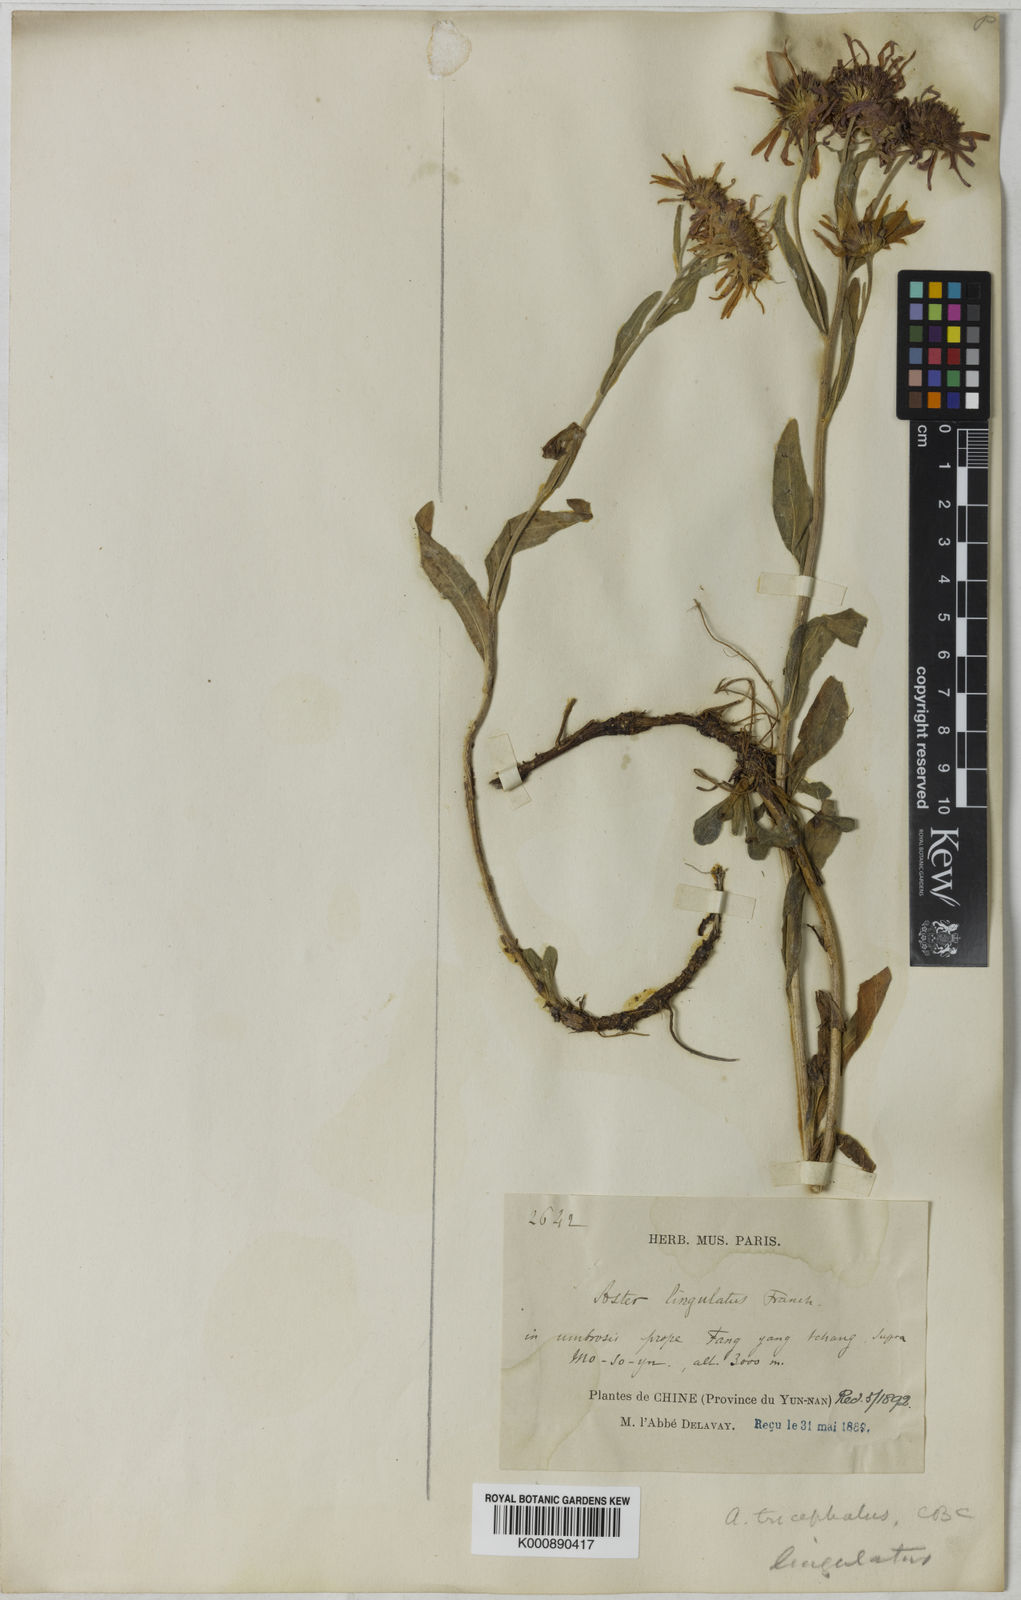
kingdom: Plantae
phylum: Tracheophyta
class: Magnoliopsida
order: Asterales
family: Asteraceae
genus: Aster
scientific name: Aster lingulatus
